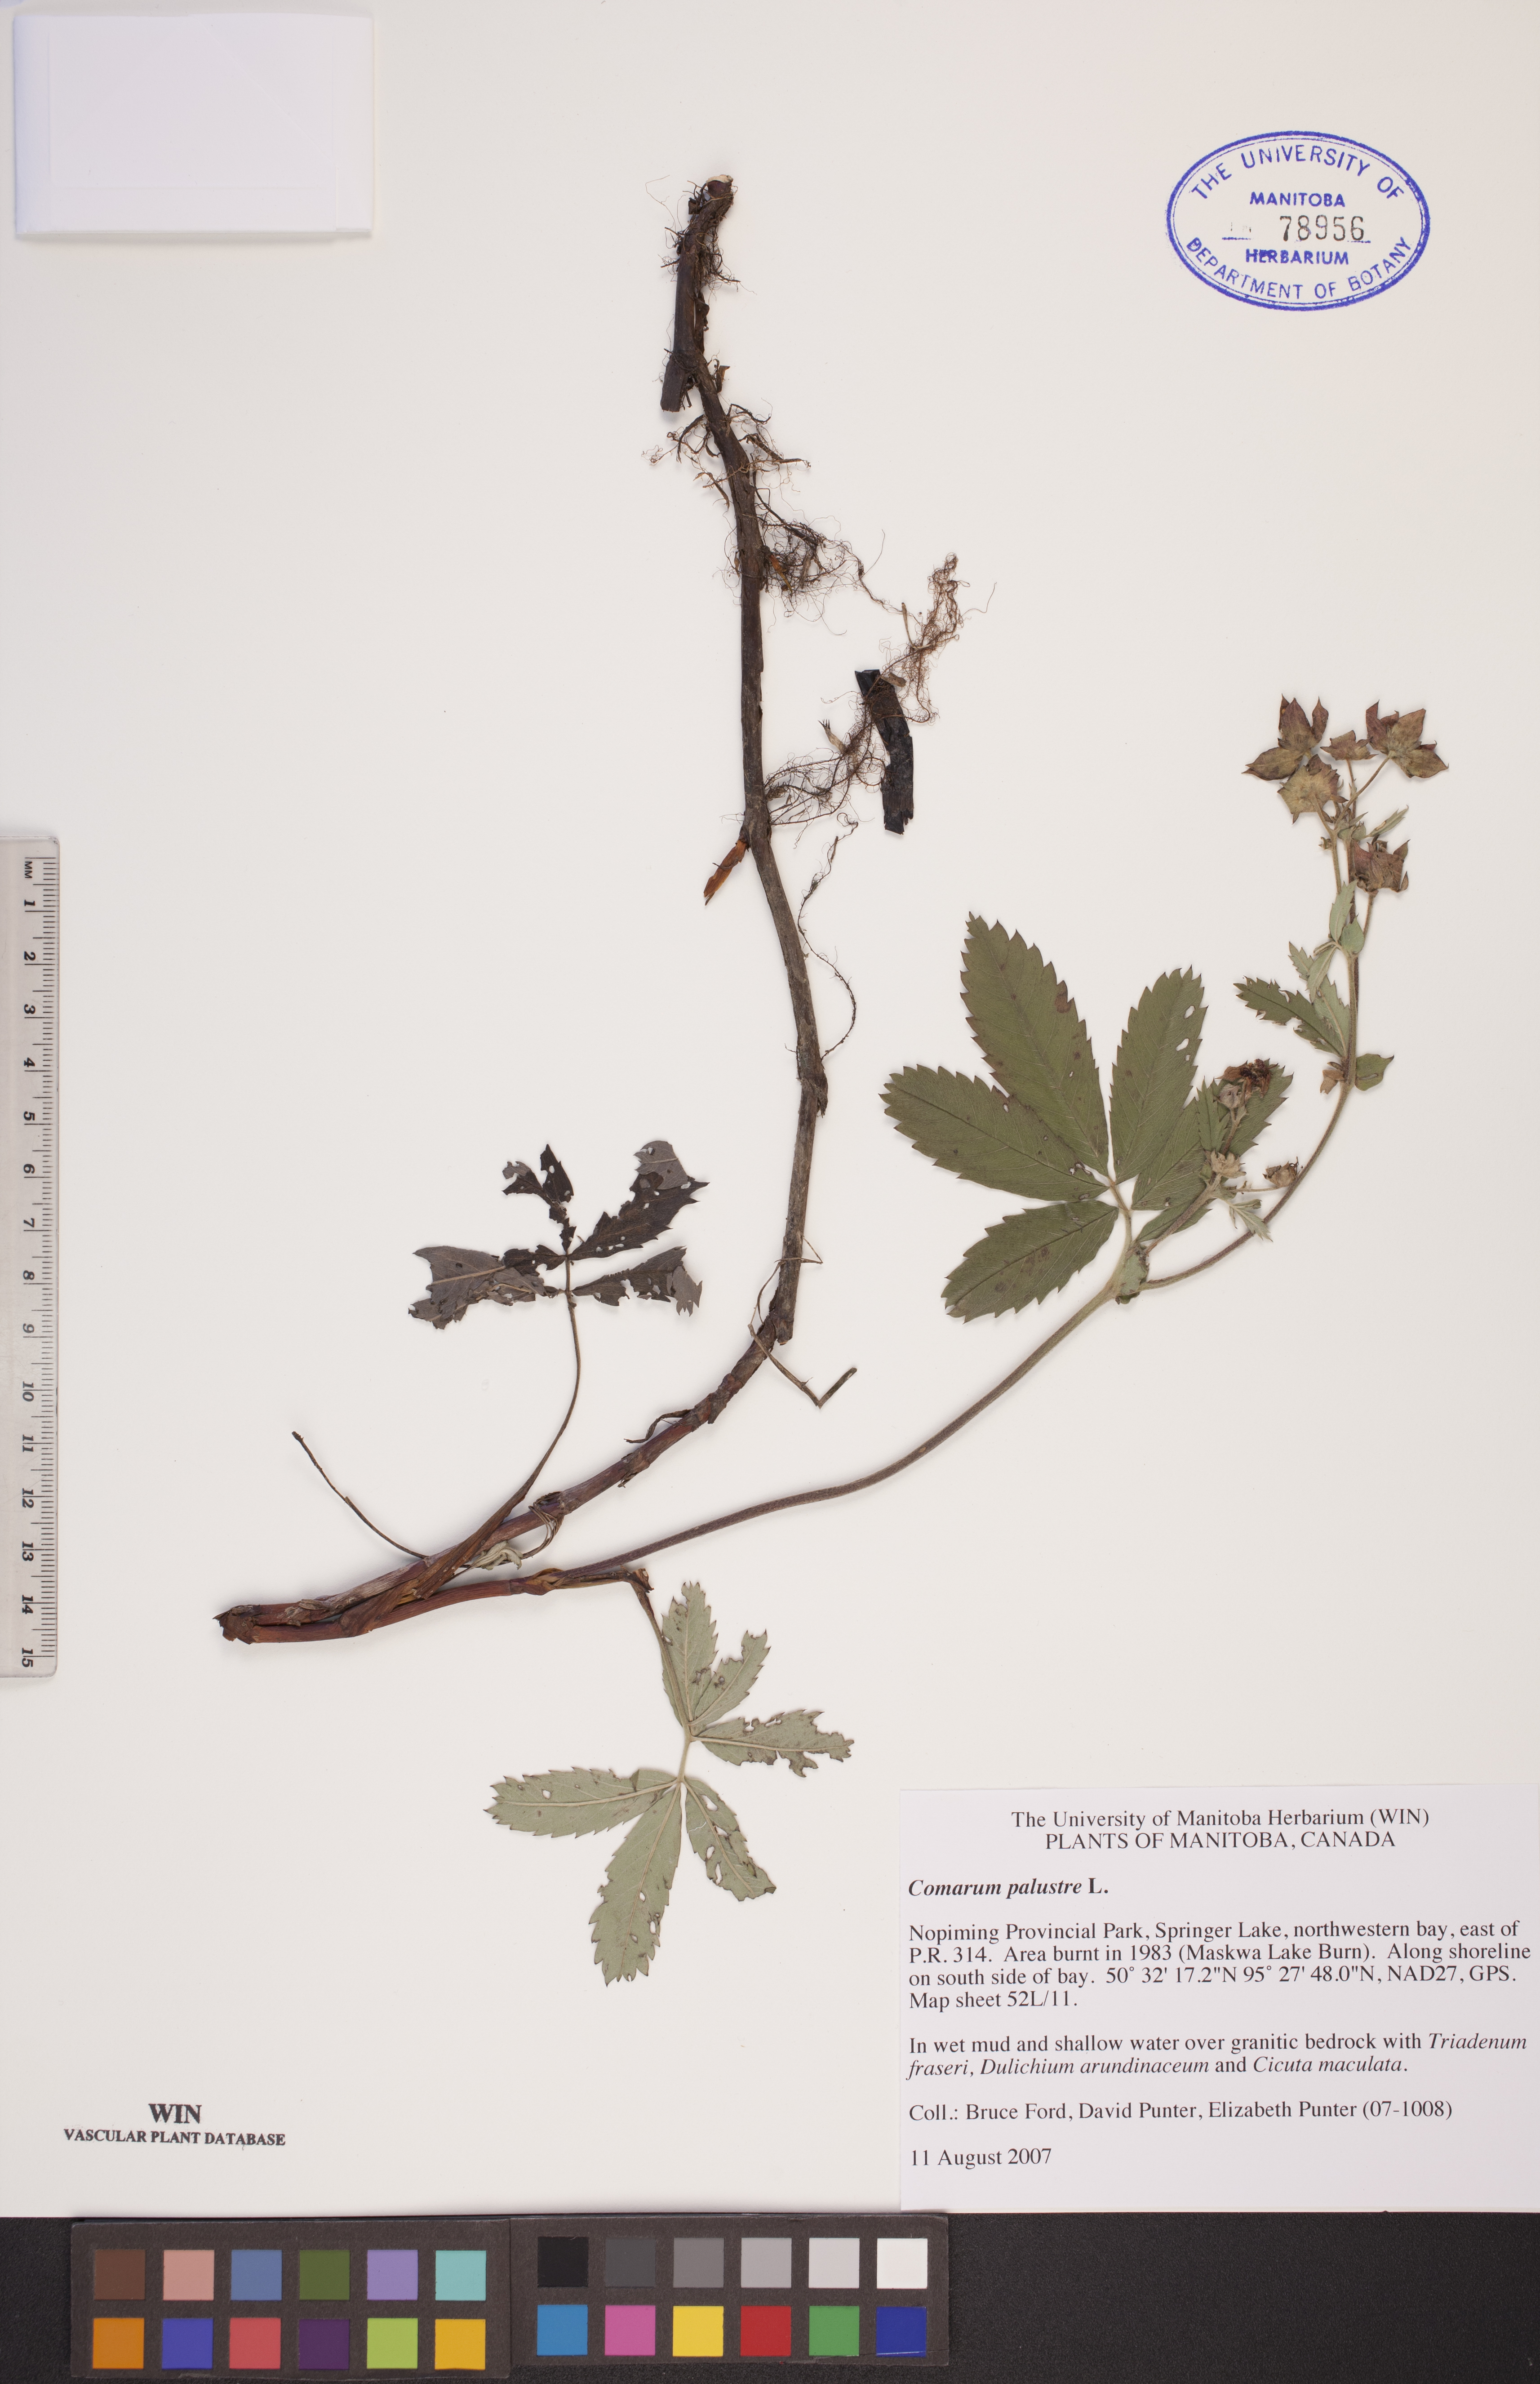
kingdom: Plantae
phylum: Tracheophyta
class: Magnoliopsida
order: Rosales
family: Rosaceae
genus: Comarum
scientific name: Comarum palustre
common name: Marsh cinquefoil
